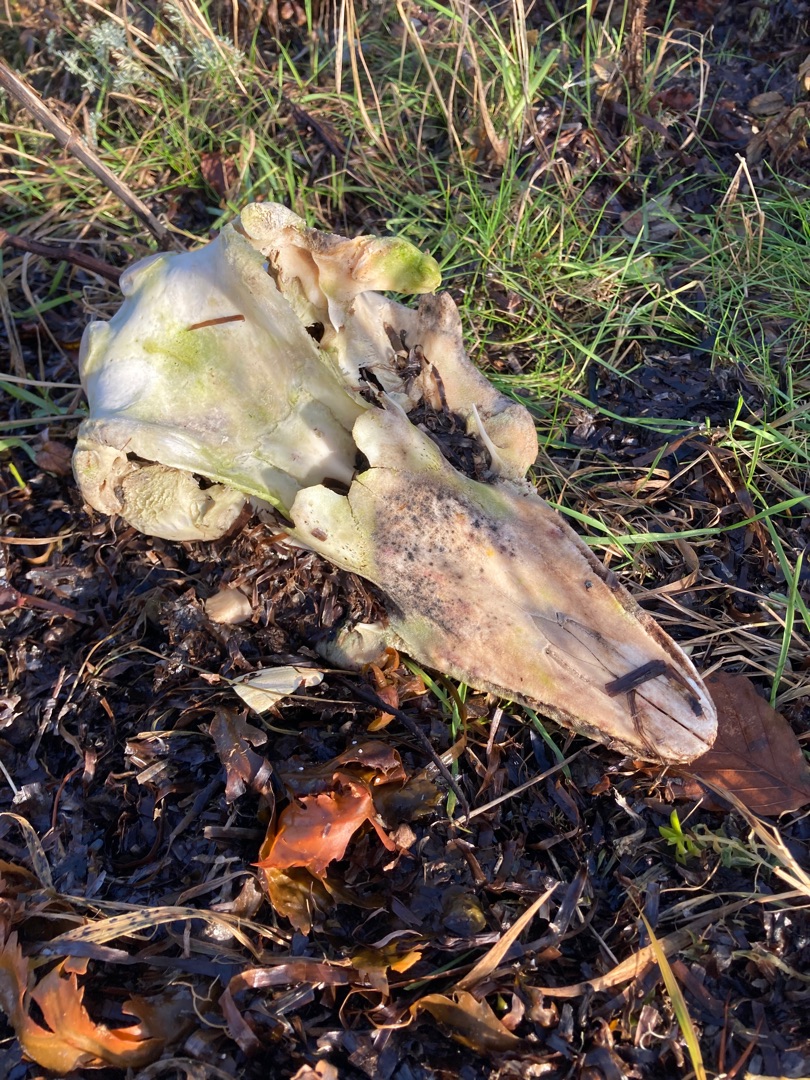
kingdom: Animalia
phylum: Chordata
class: Mammalia
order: Cetacea
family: Phocoenidae
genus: Phocoena
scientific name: Phocoena phocoena
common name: Marsvin
